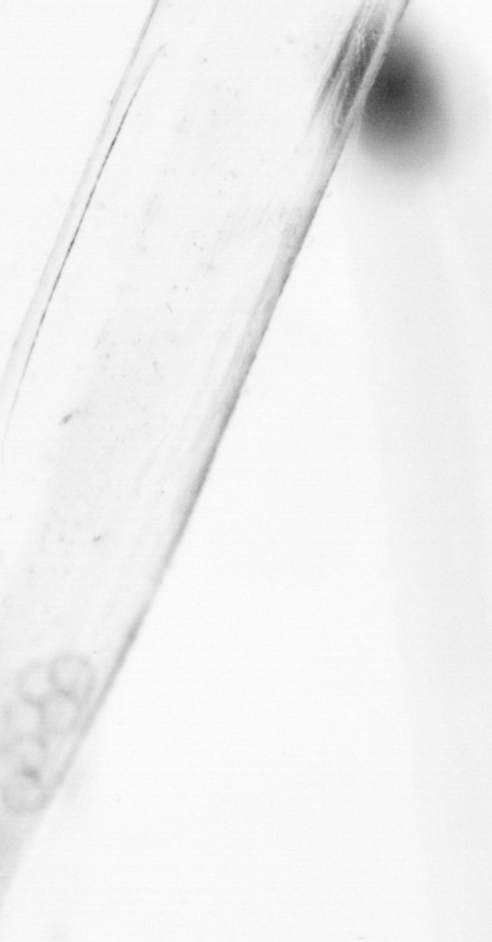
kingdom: Animalia
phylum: Chordata
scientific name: Chordata
